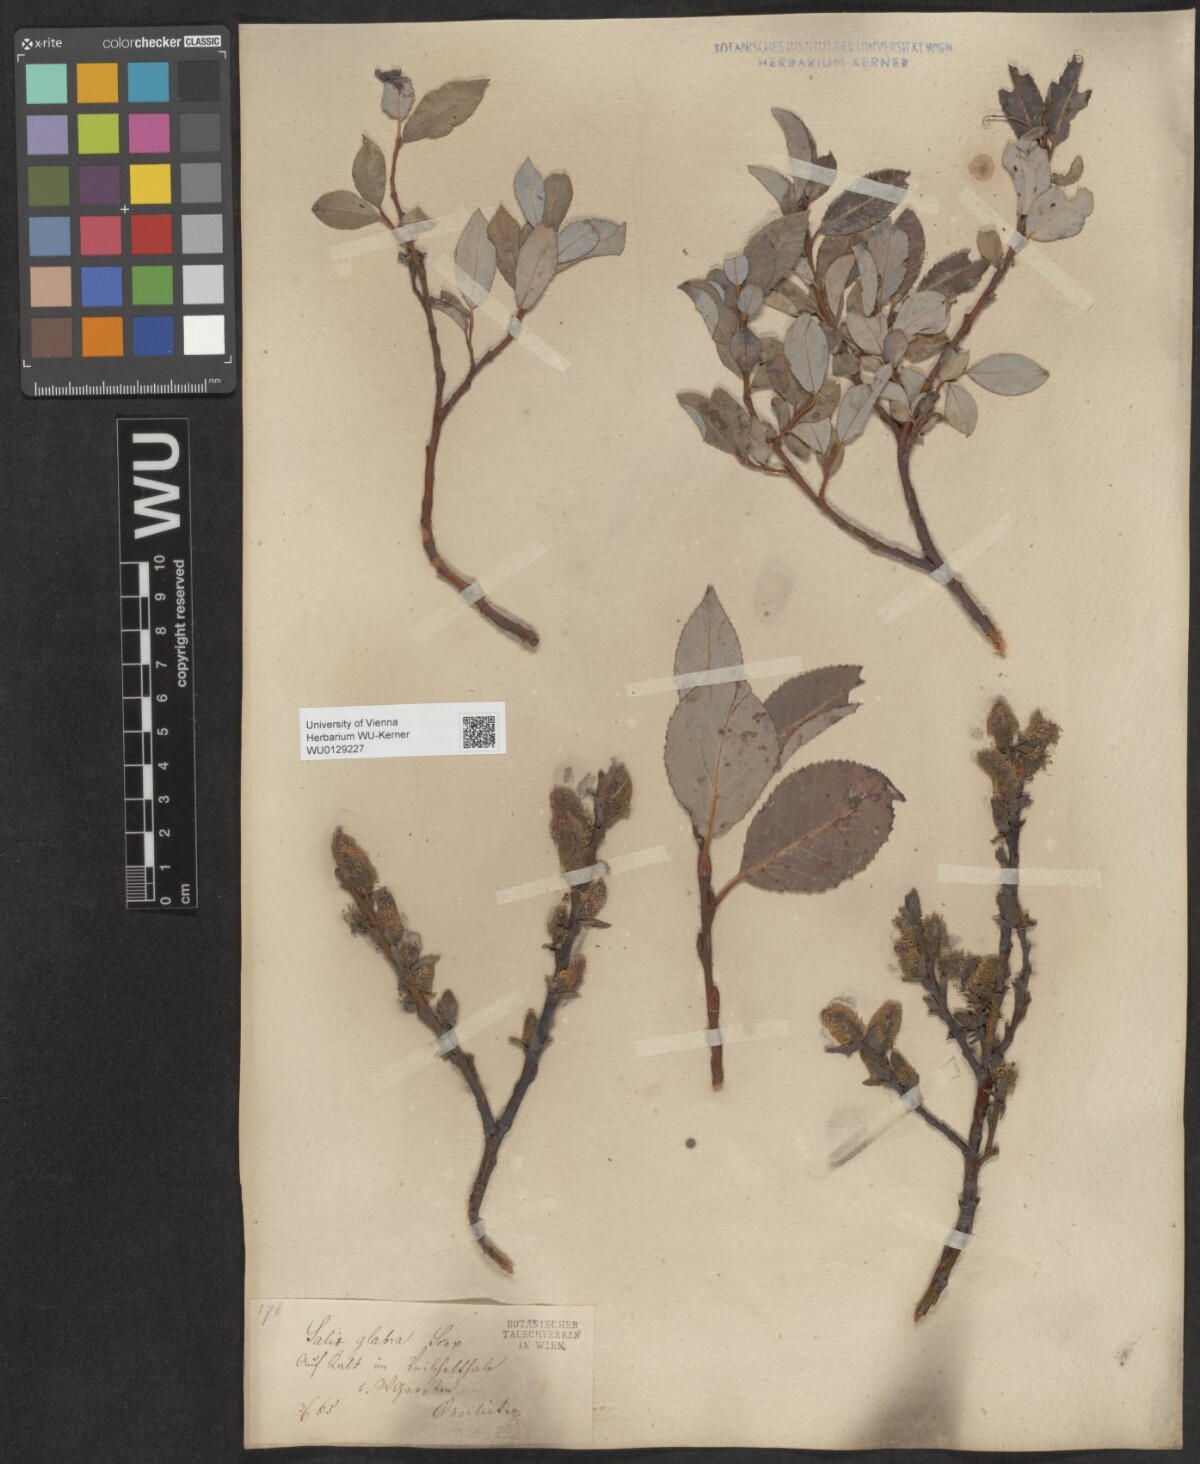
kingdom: Plantae
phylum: Tracheophyta
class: Magnoliopsida
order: Malpighiales
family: Salicaceae
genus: Salix
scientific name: Salix glabra
